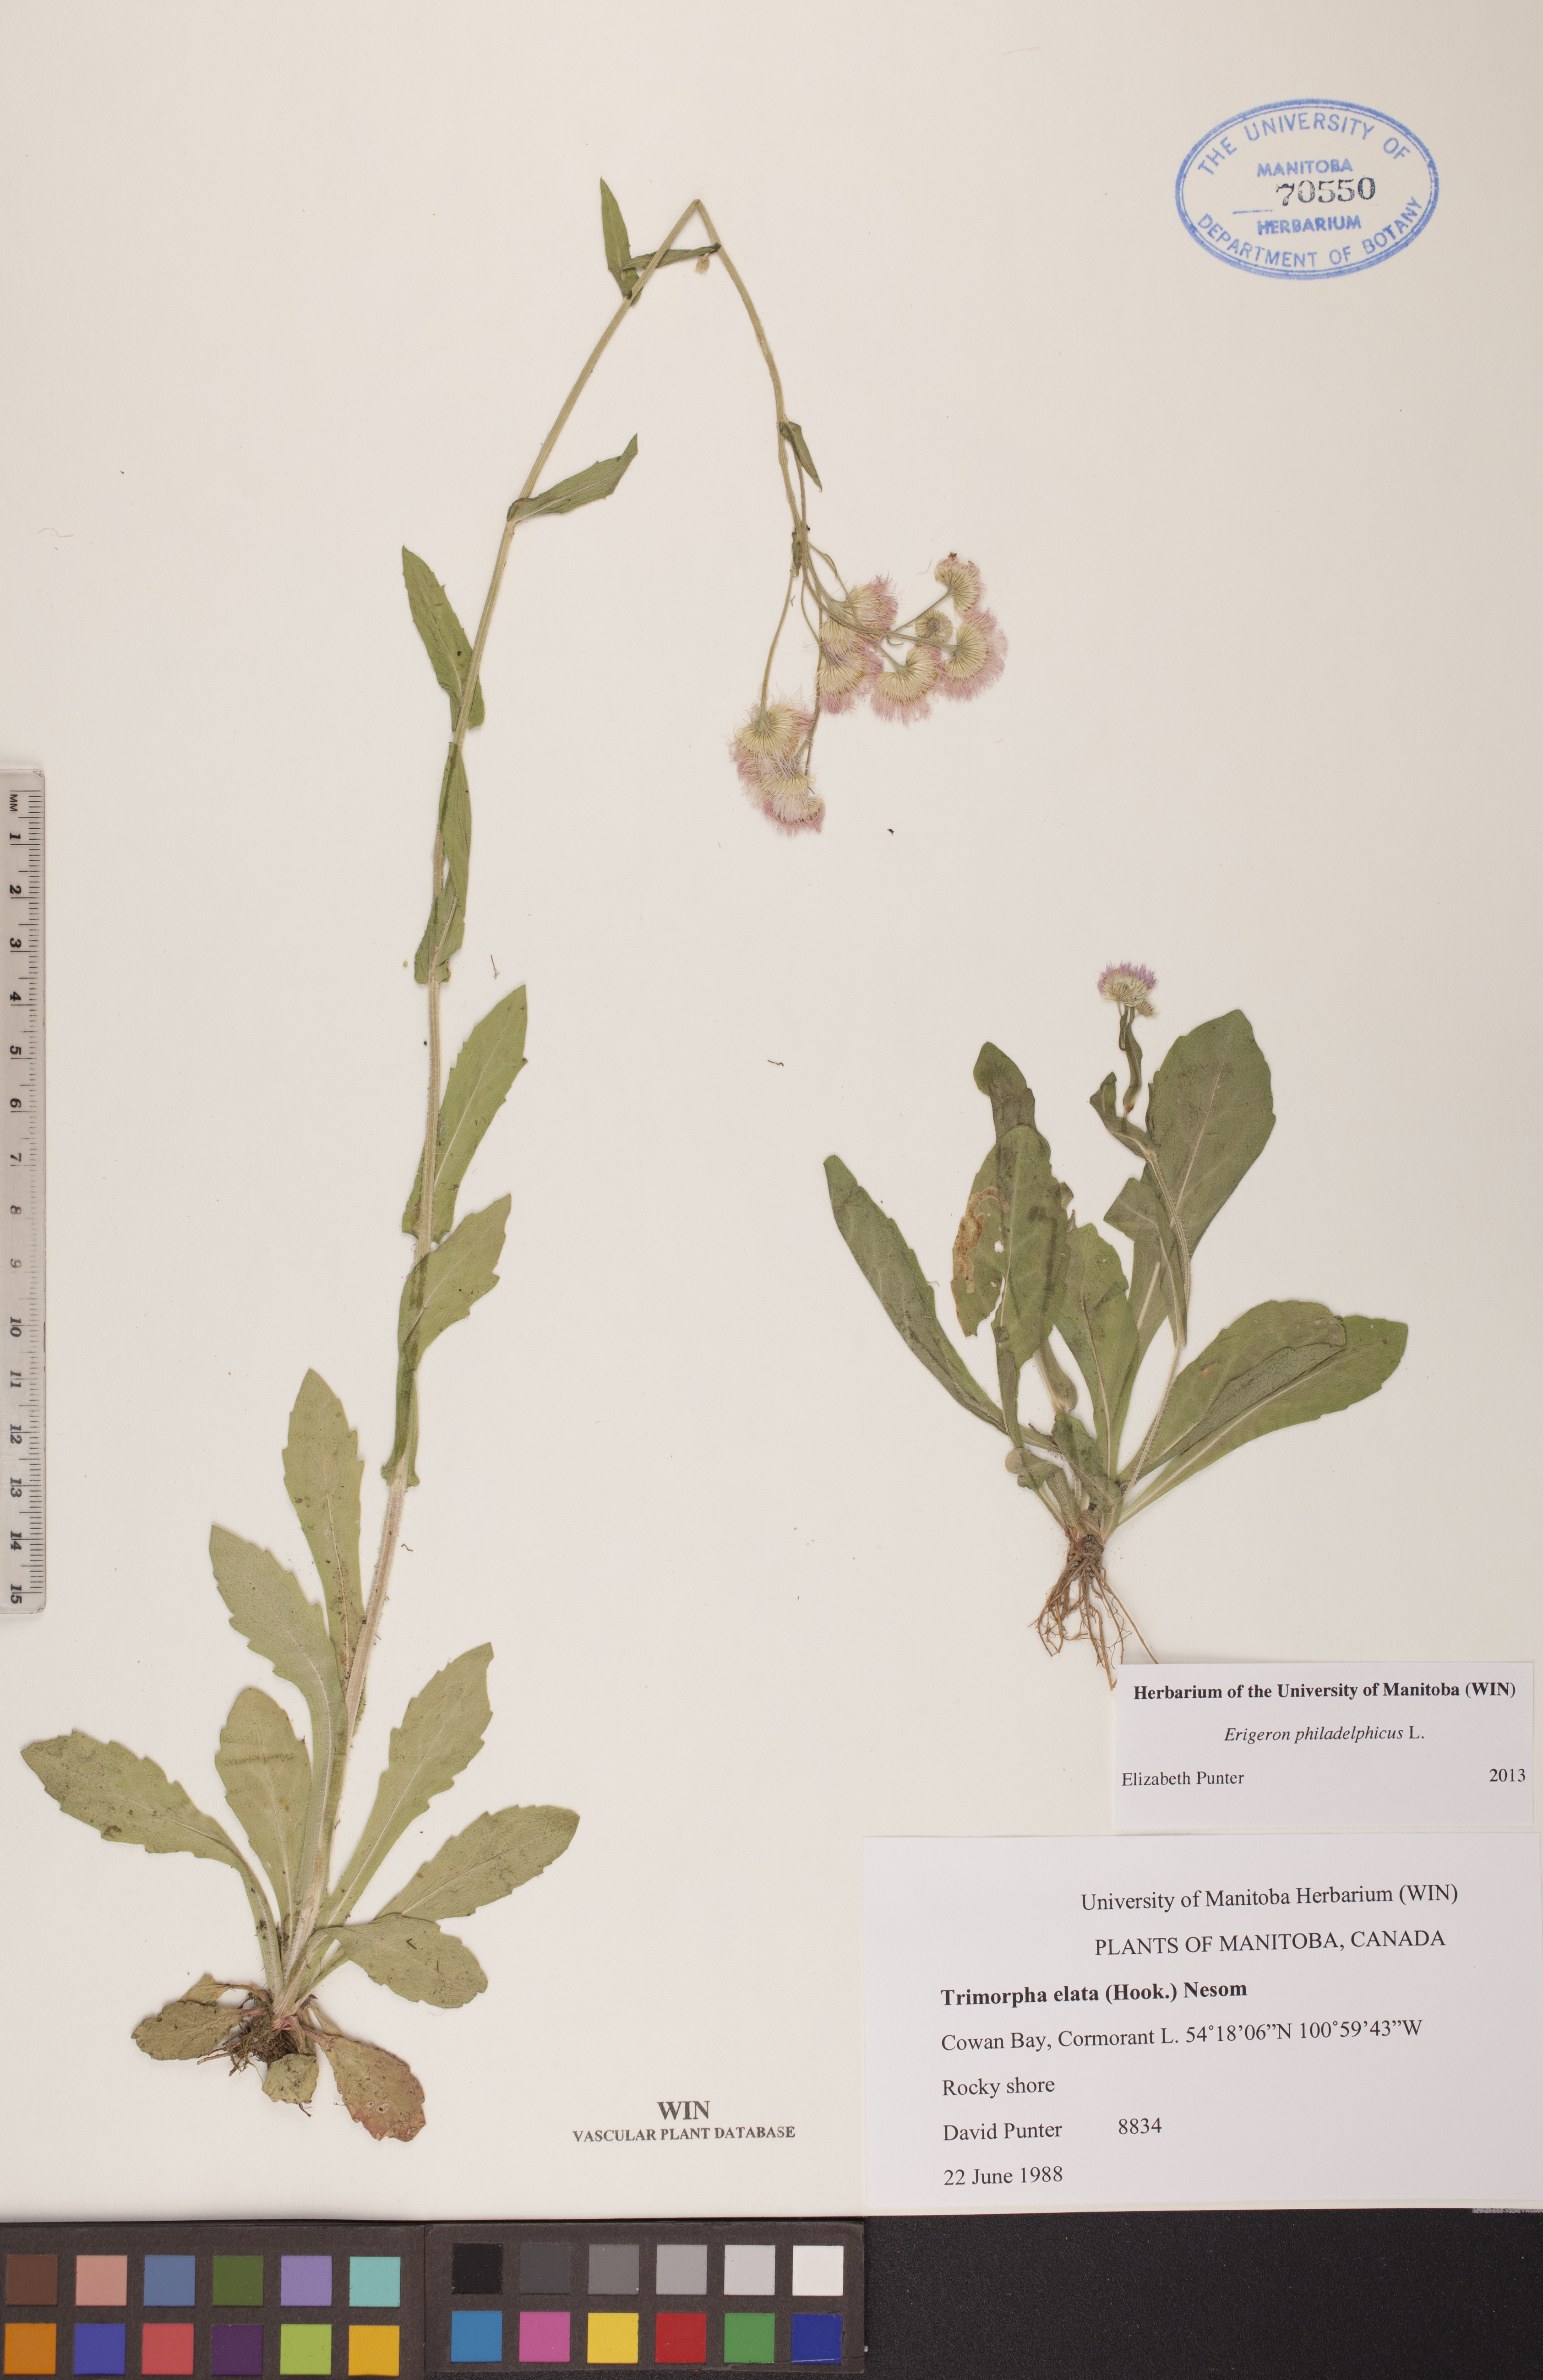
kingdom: Plantae
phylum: Tracheophyta
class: Magnoliopsida
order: Asterales
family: Asteraceae
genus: Erigeron
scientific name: Erigeron philadelphicus
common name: Robin's-plantain
